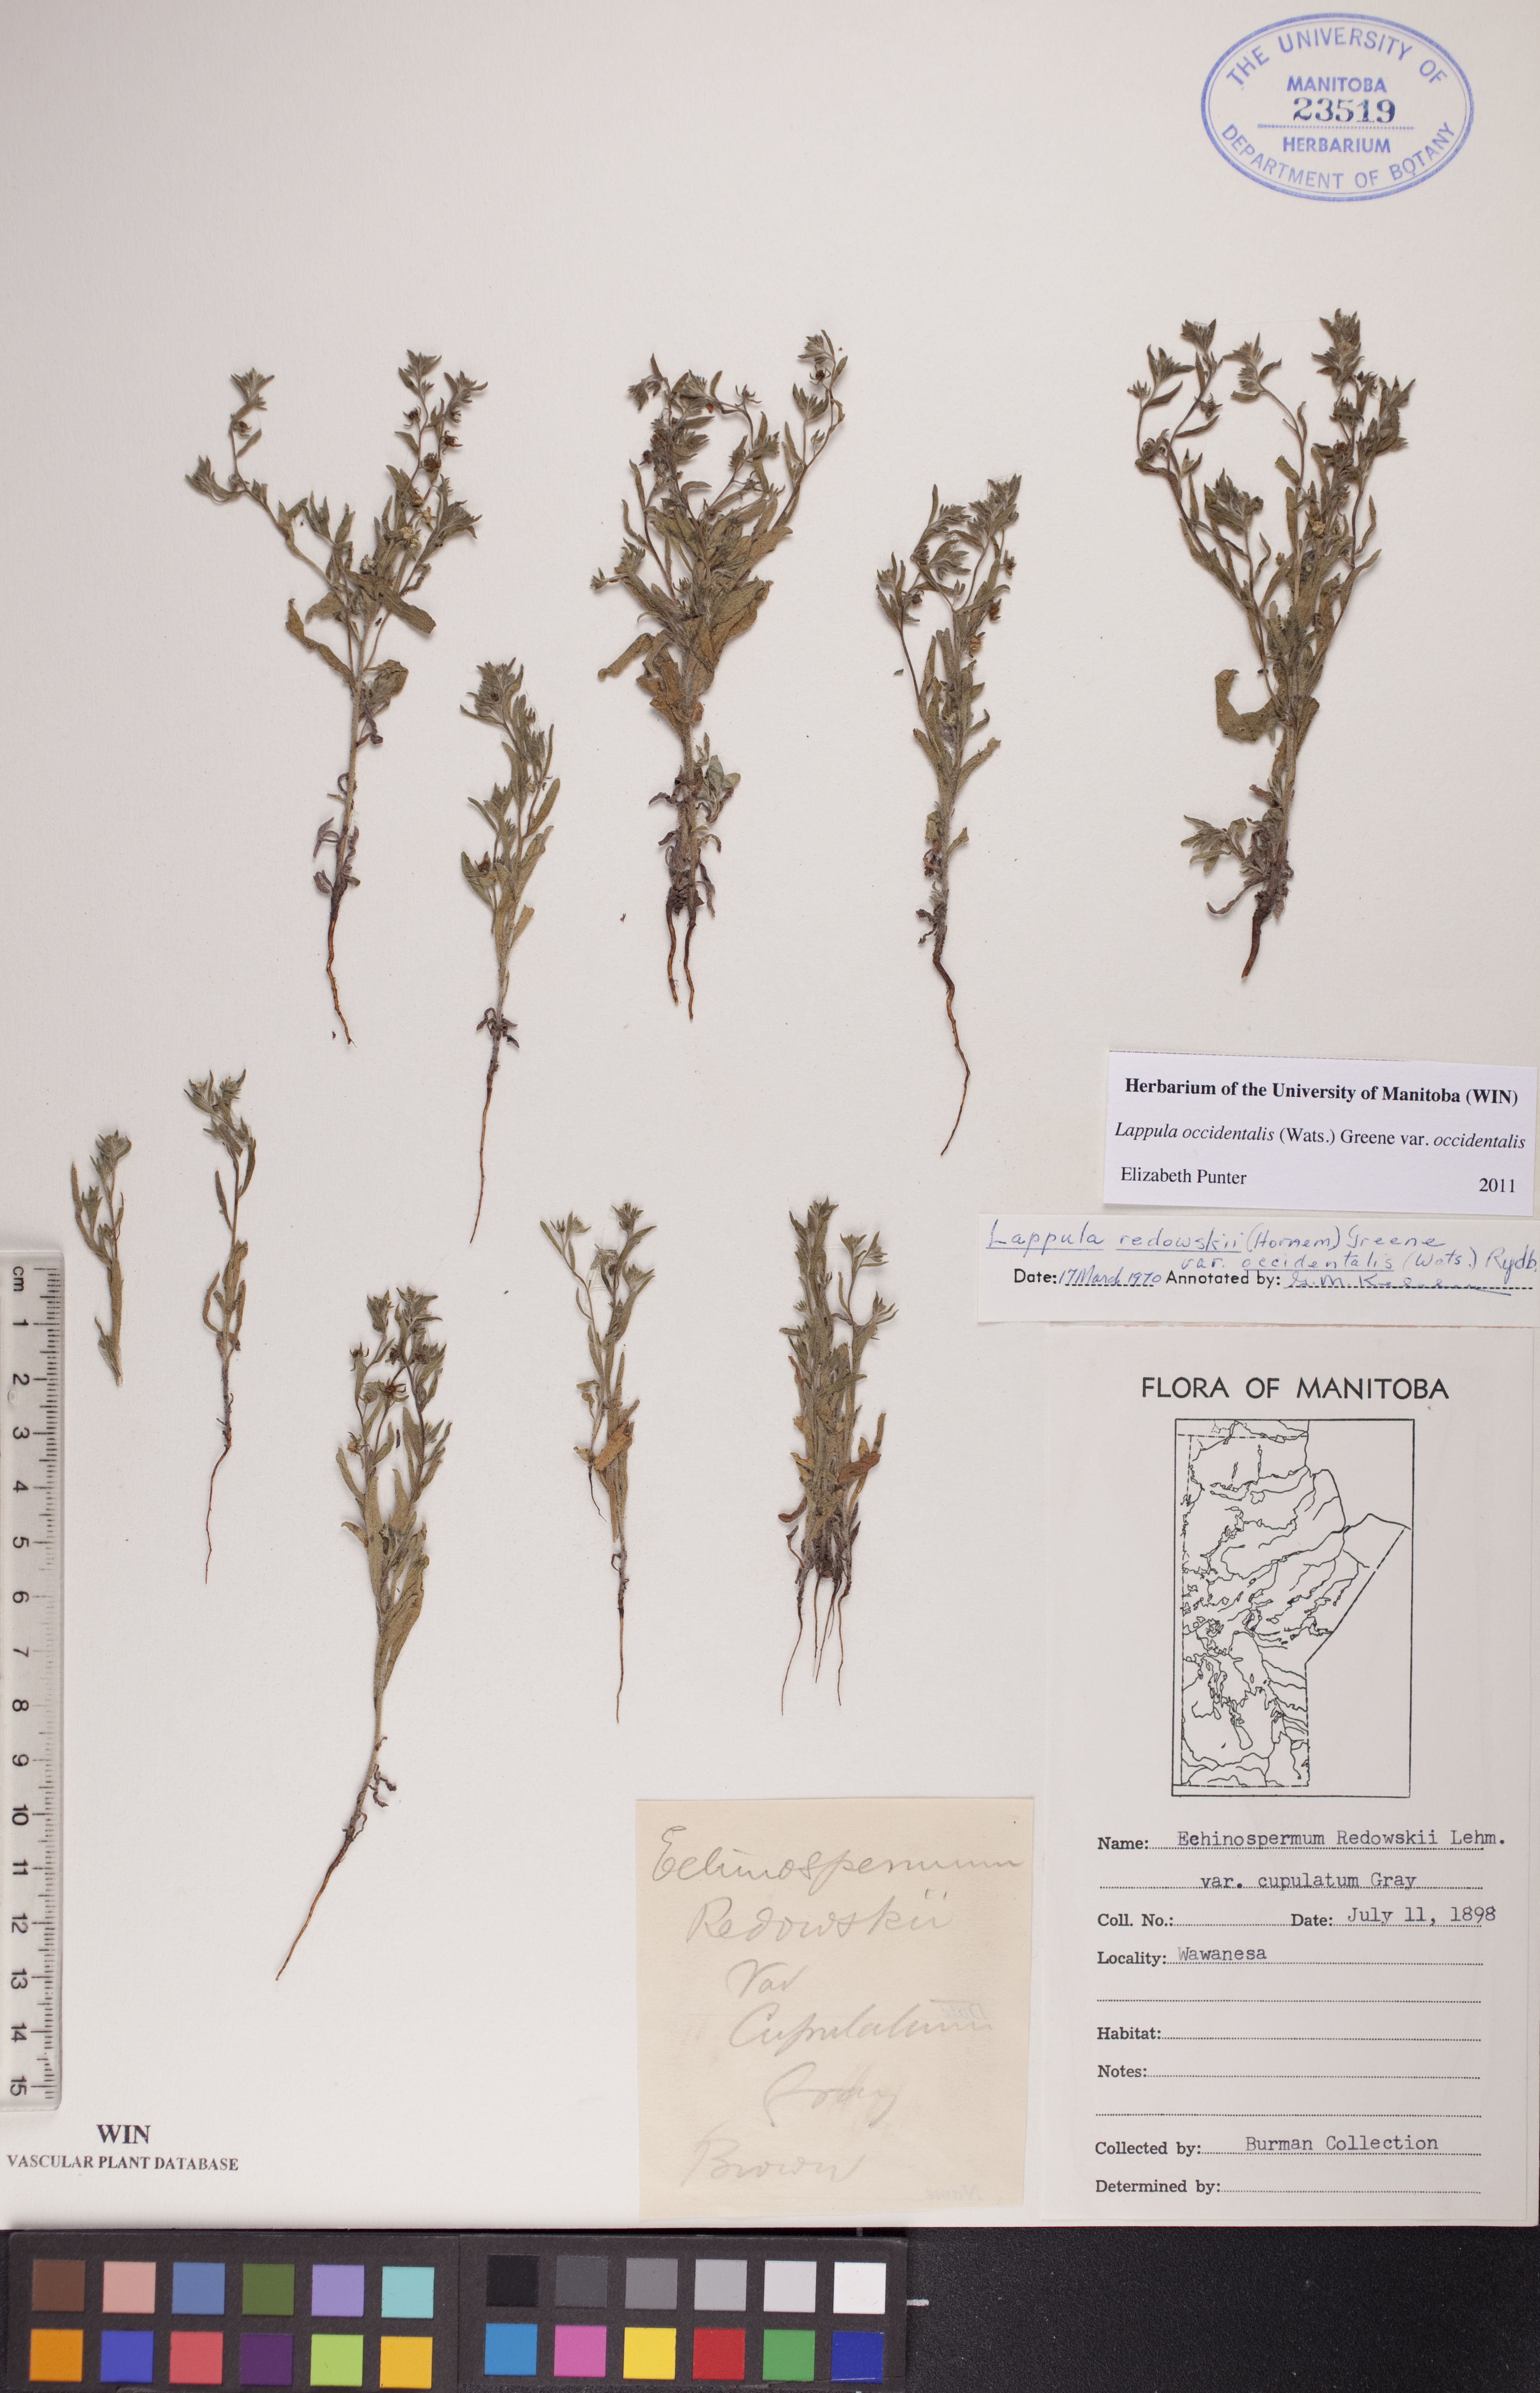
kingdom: Plantae
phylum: Tracheophyta
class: Magnoliopsida
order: Boraginales
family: Boraginaceae
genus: Lappula
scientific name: Lappula occidentalis
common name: Western stickseed
